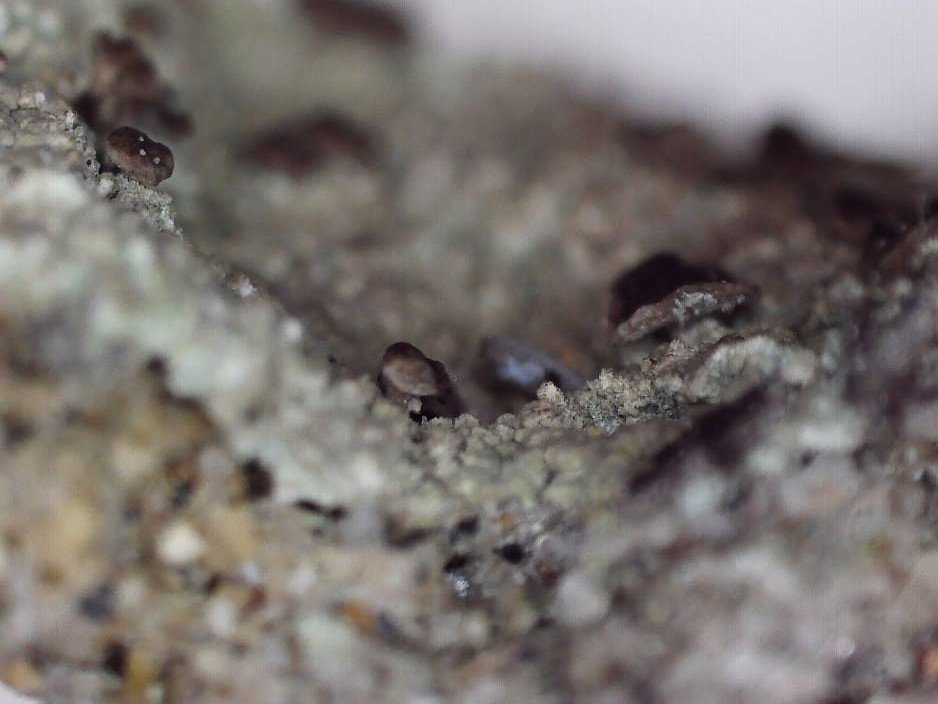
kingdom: Fungi
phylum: Ascomycota
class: Lecanoromycetes
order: Baeomycetales
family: Baeomycetaceae
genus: Baeomyces
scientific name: Baeomyces rufus
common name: rødbrun svampelav
